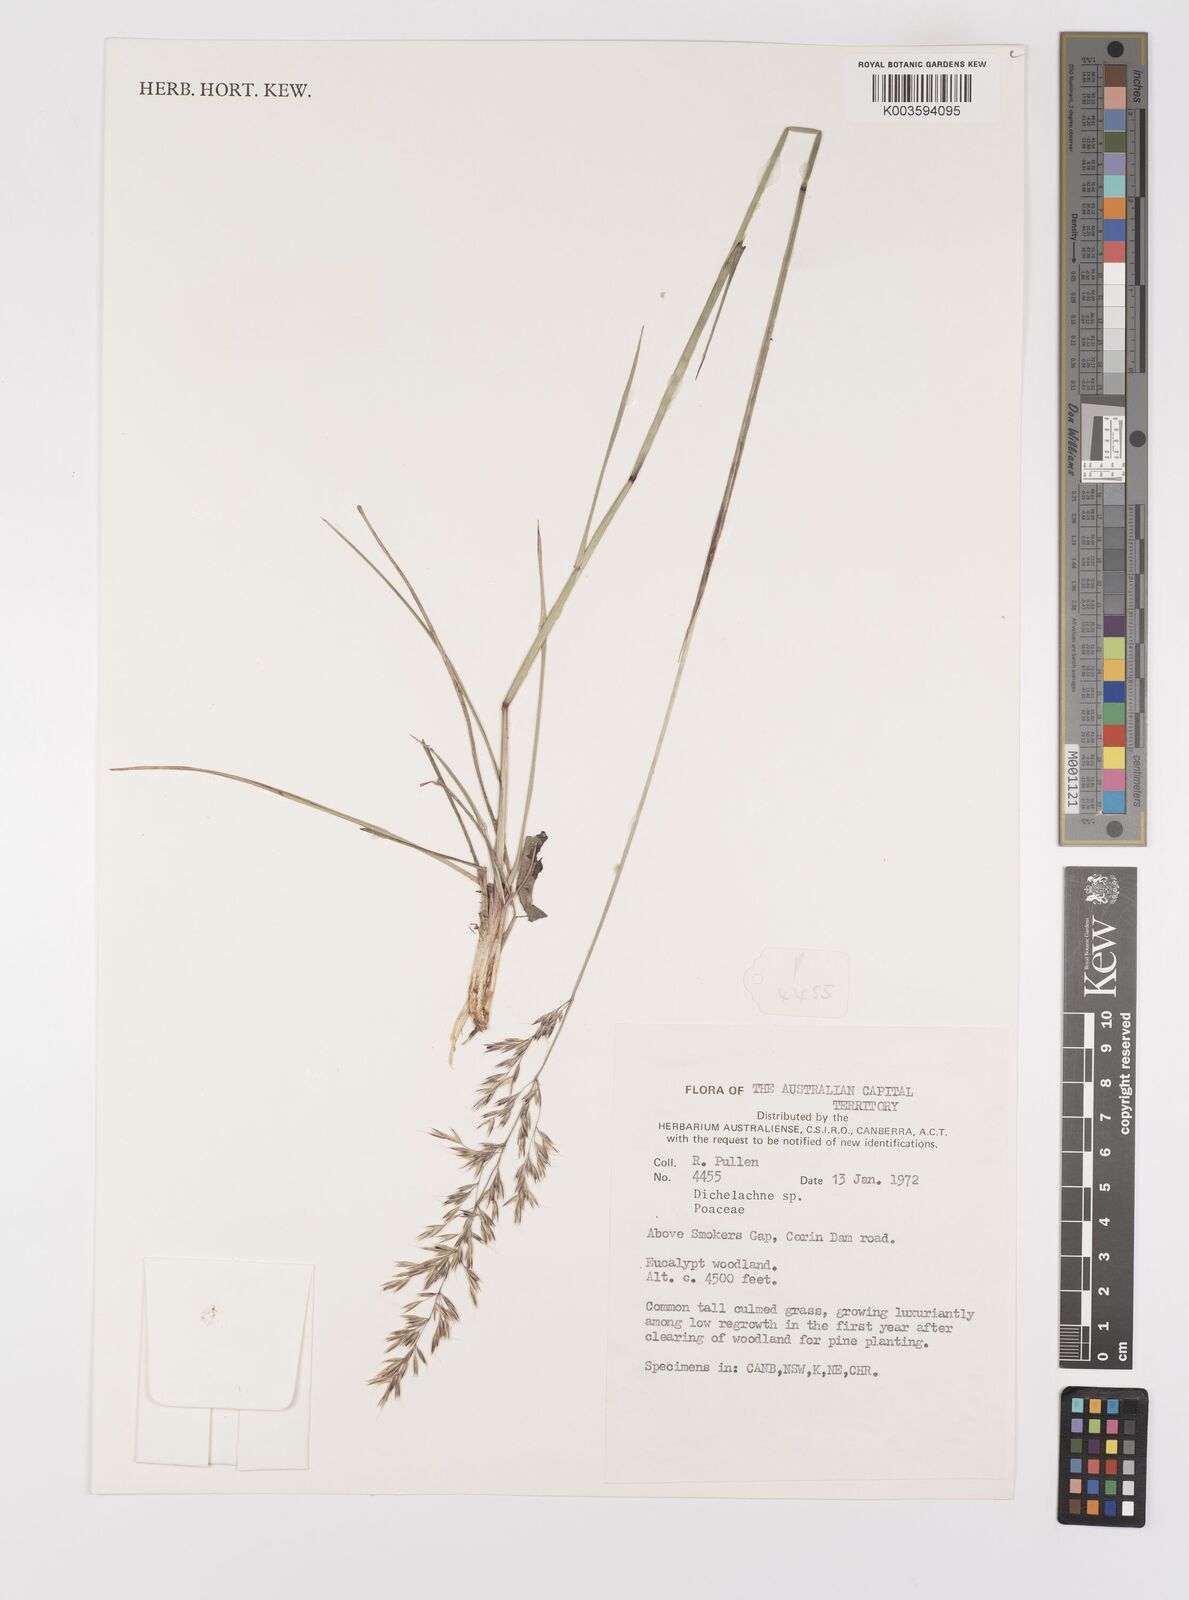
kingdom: Plantae
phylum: Tracheophyta
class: Liliopsida
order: Poales
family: Poaceae
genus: Dichelachne
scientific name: Dichelachne
